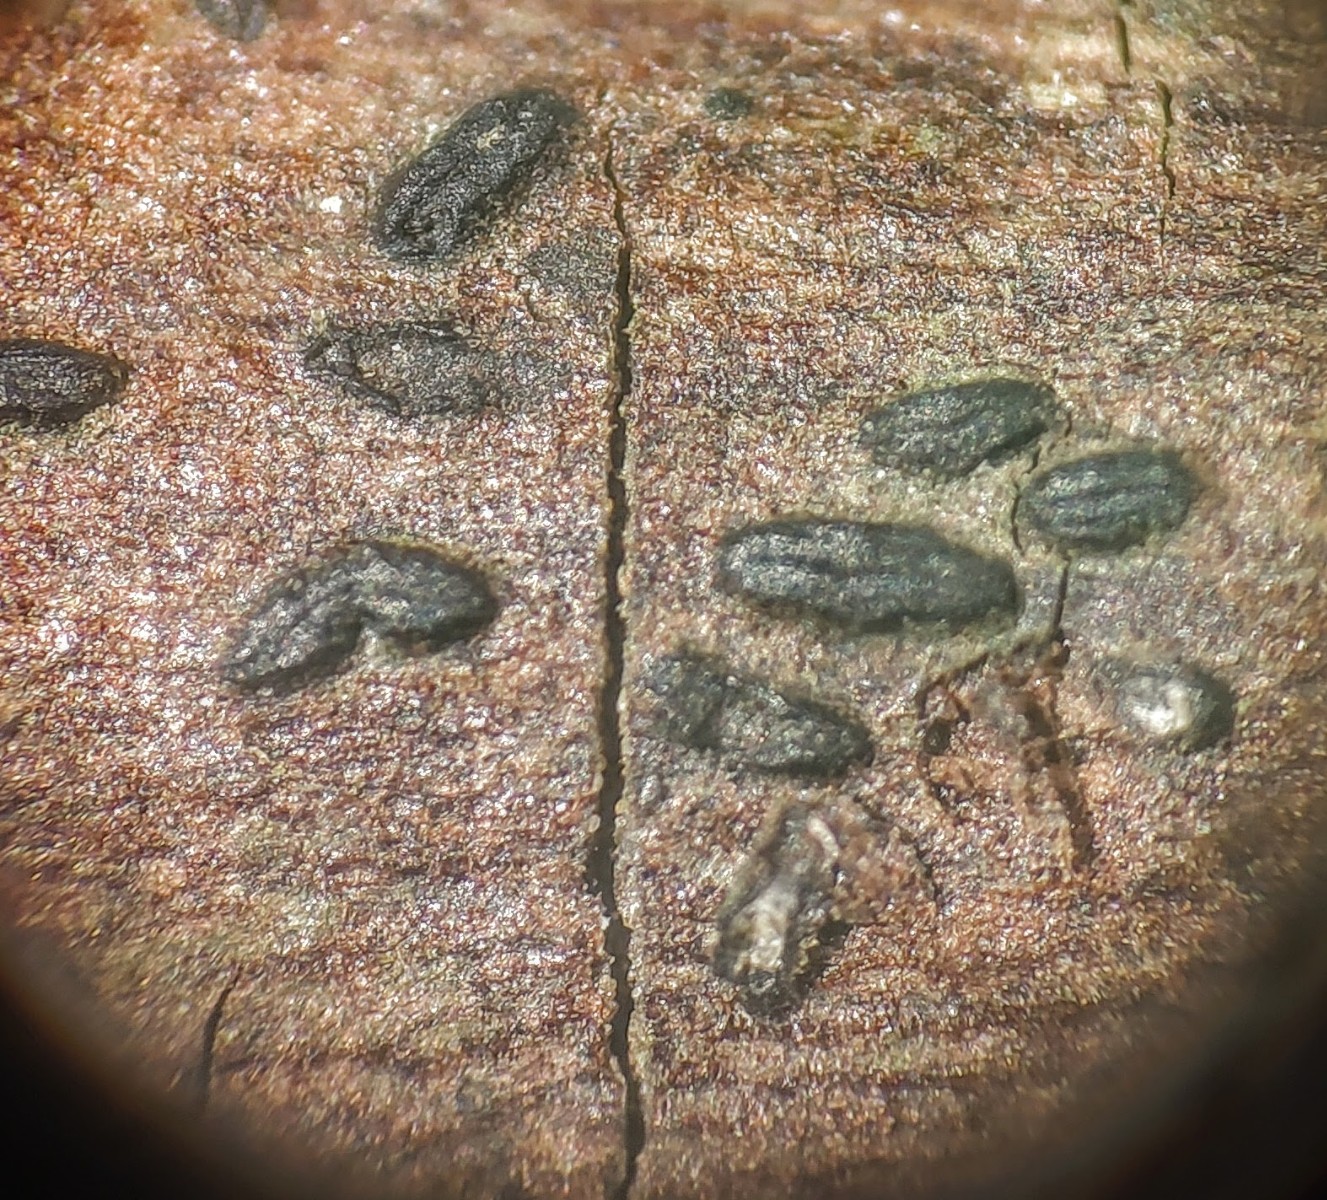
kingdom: Fungi
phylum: Ascomycota
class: Dothideomycetes
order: Hysteriales
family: Hysteriaceae
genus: Hysterobrevium
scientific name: Hysterobrevium smilacis
